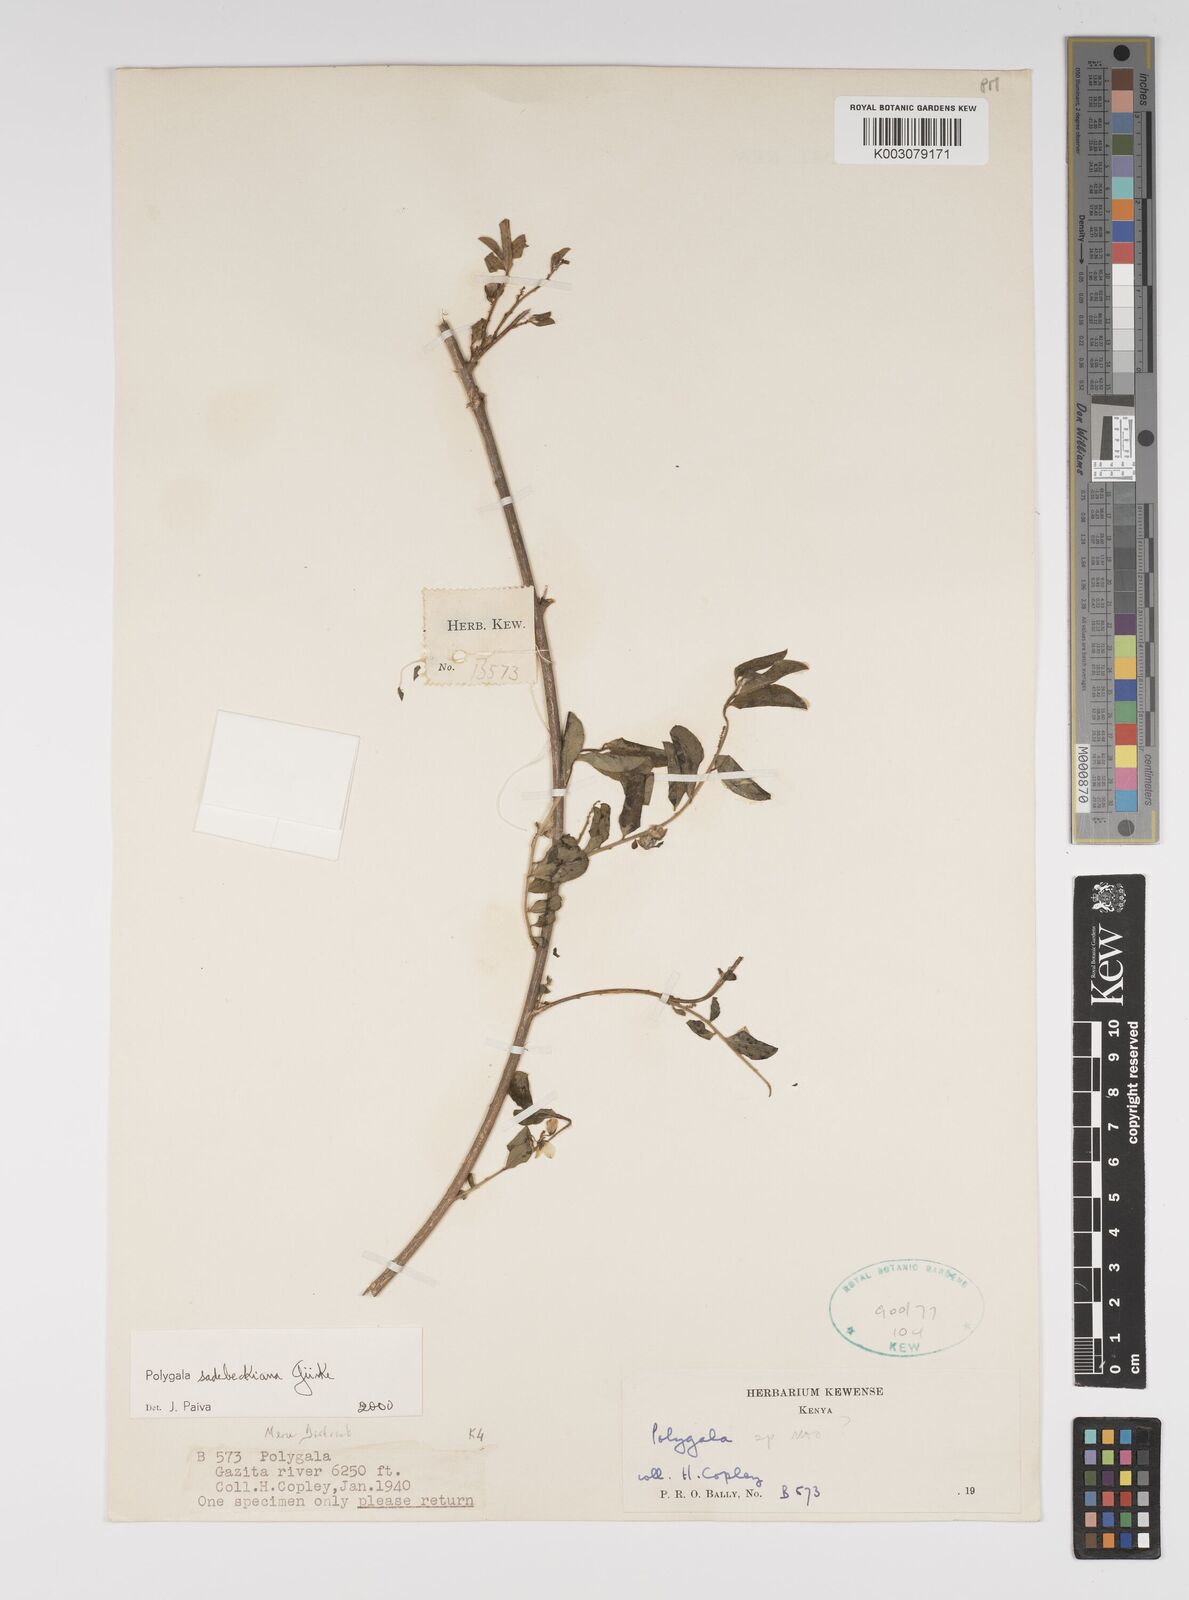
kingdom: Plantae
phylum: Tracheophyta
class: Magnoliopsida
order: Fabales
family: Polygalaceae
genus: Polygala
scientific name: Polygala sadebeckiana
